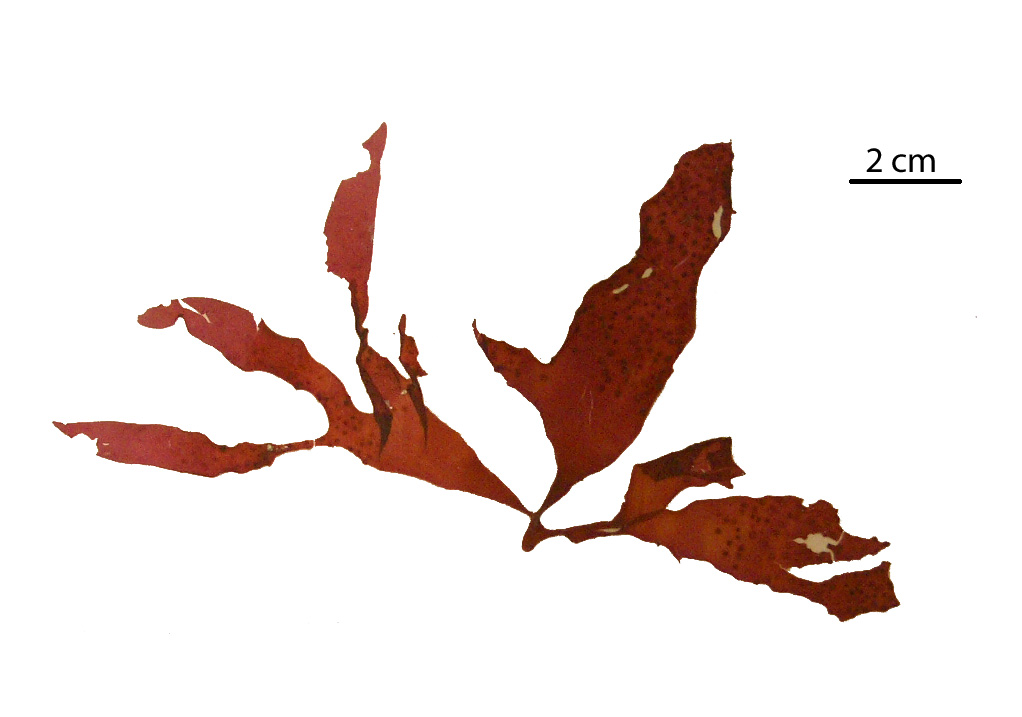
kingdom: Plantae
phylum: Rhodophyta
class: Florideophyceae
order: Gigartinales
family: Kallymeniaceae
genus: Psaromenia
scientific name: Psaromenia berggrenii
